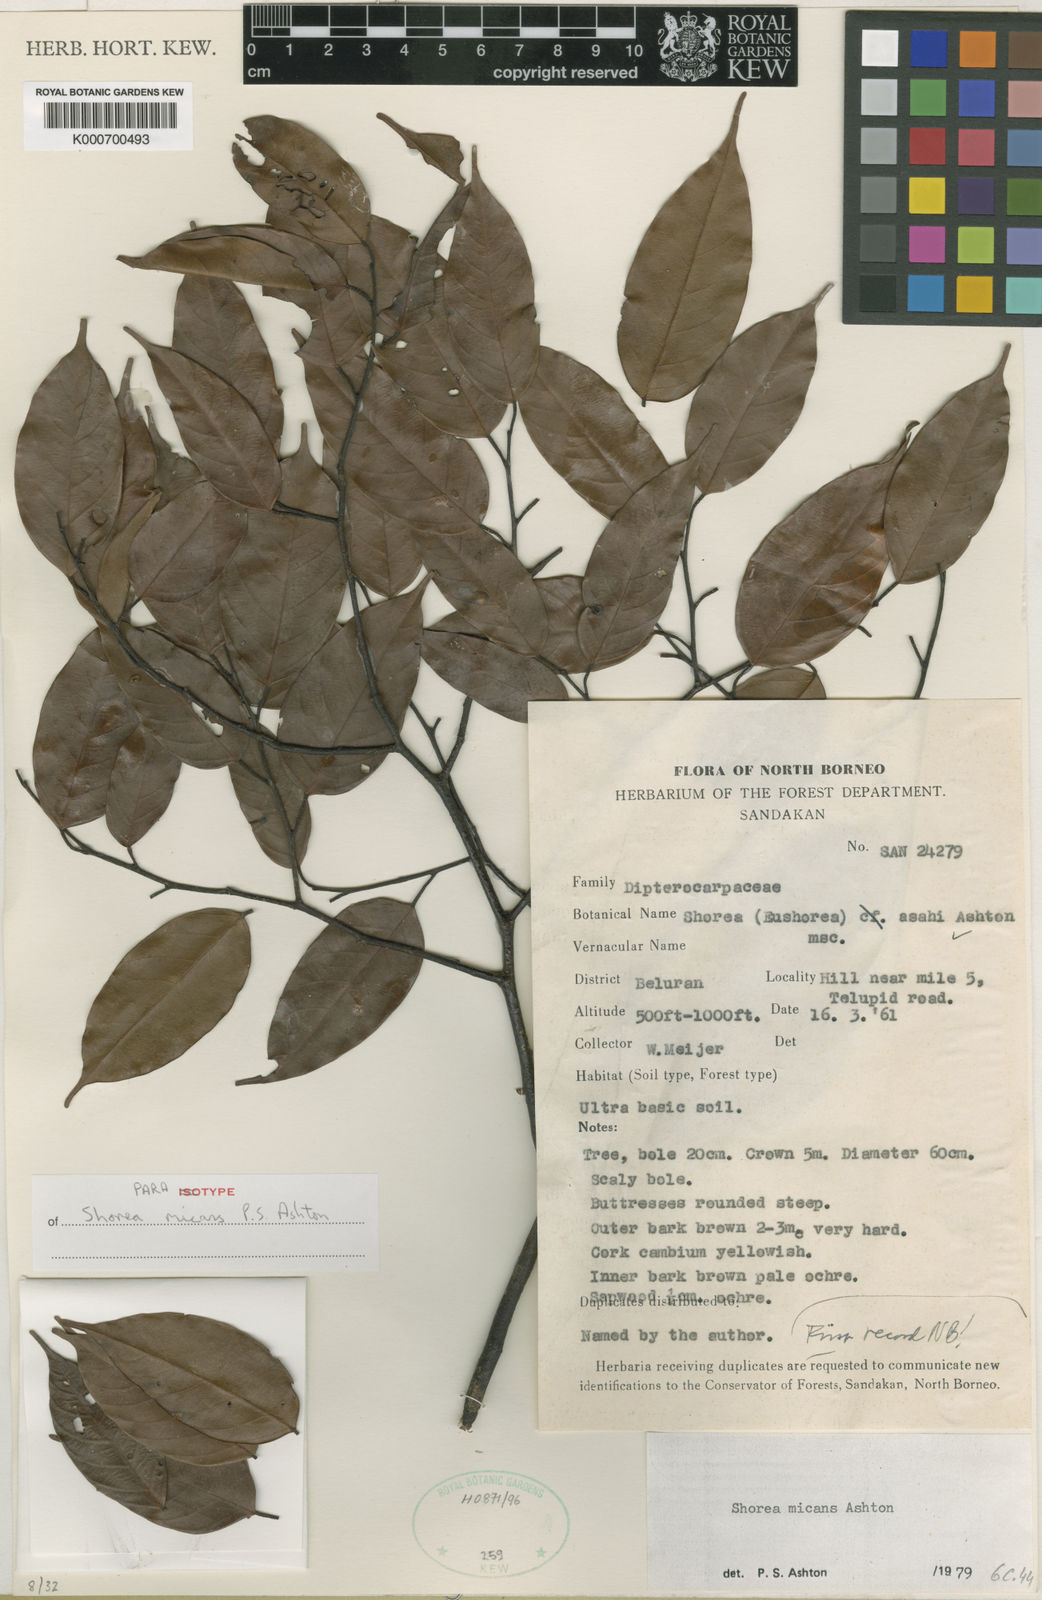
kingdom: Plantae
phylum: Tracheophyta
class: Magnoliopsida
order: Malvales
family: Dipterocarpaceae
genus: Shorea
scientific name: Shorea micans
